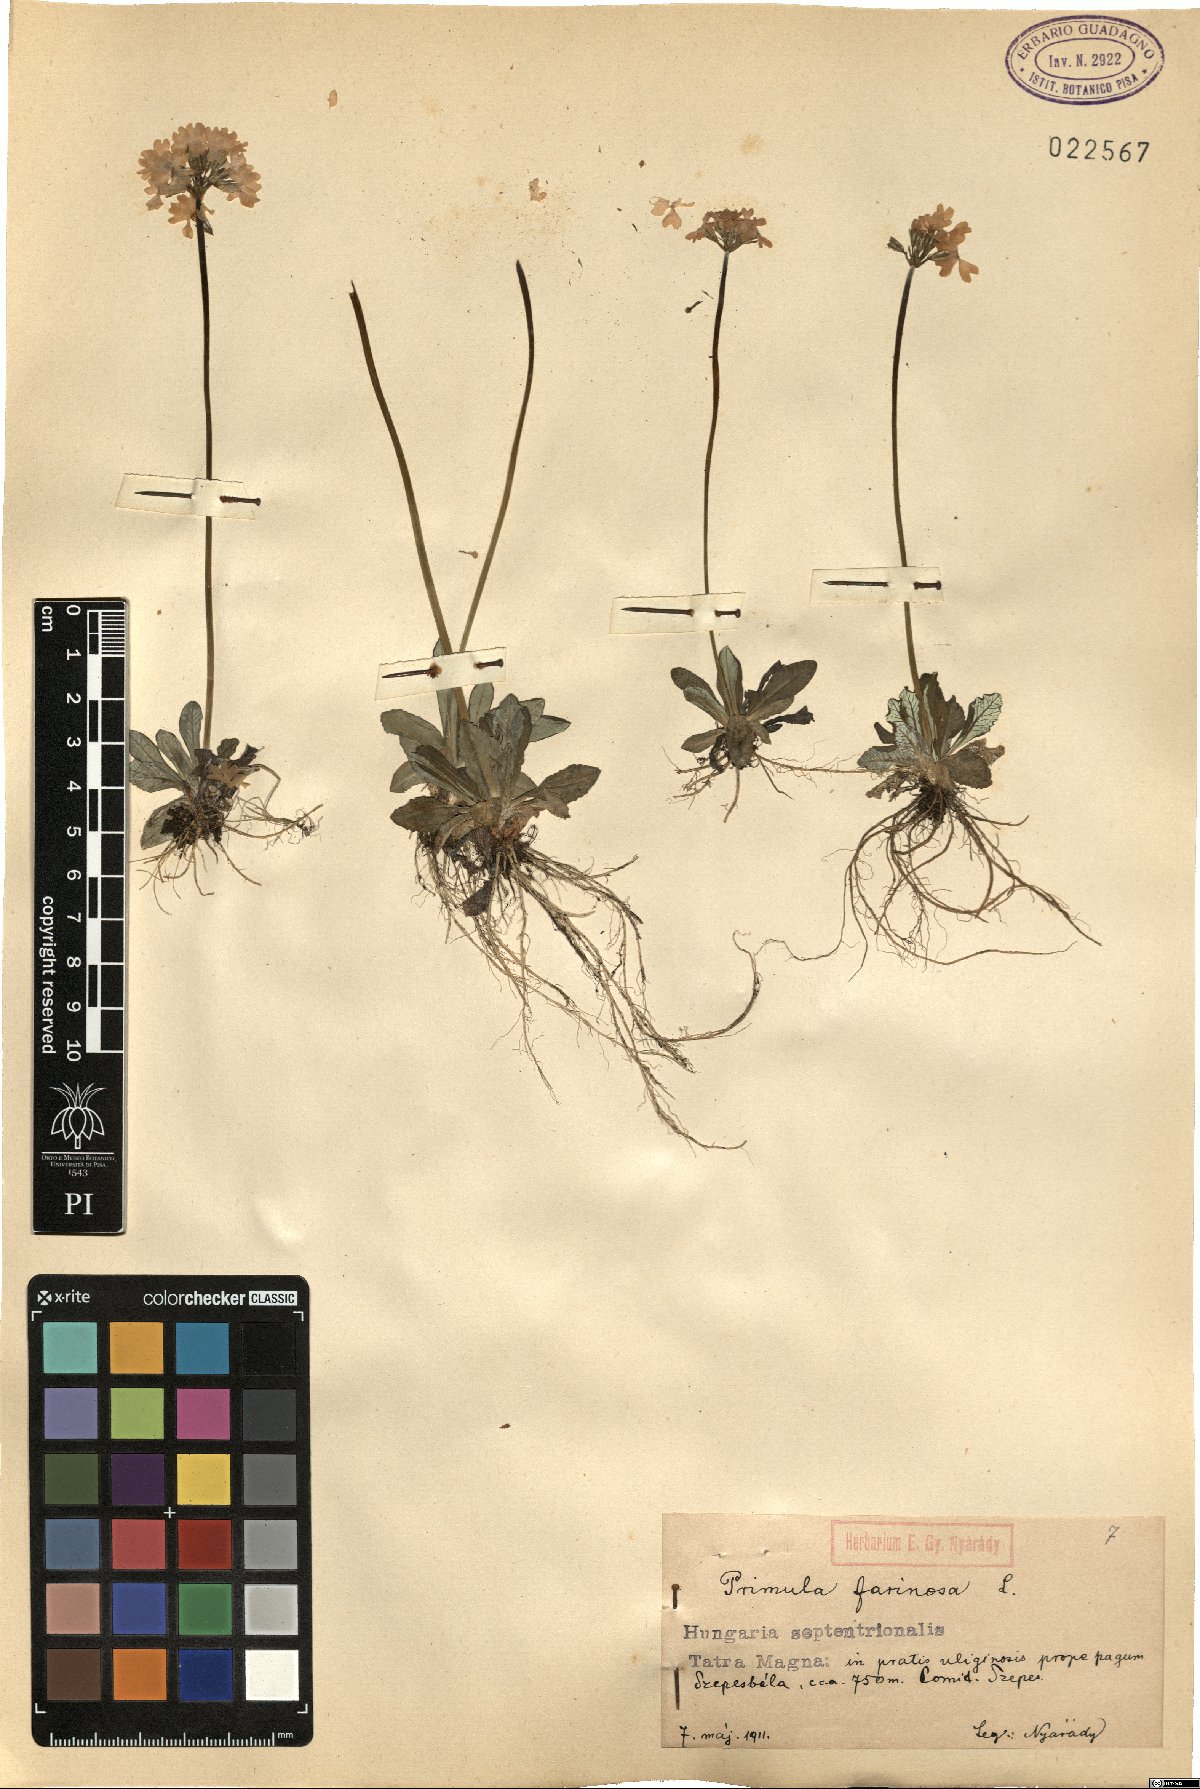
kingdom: Plantae
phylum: Tracheophyta
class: Magnoliopsida
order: Ericales
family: Primulaceae
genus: Primula
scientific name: Primula farinosa
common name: Bird's-eye primrose
